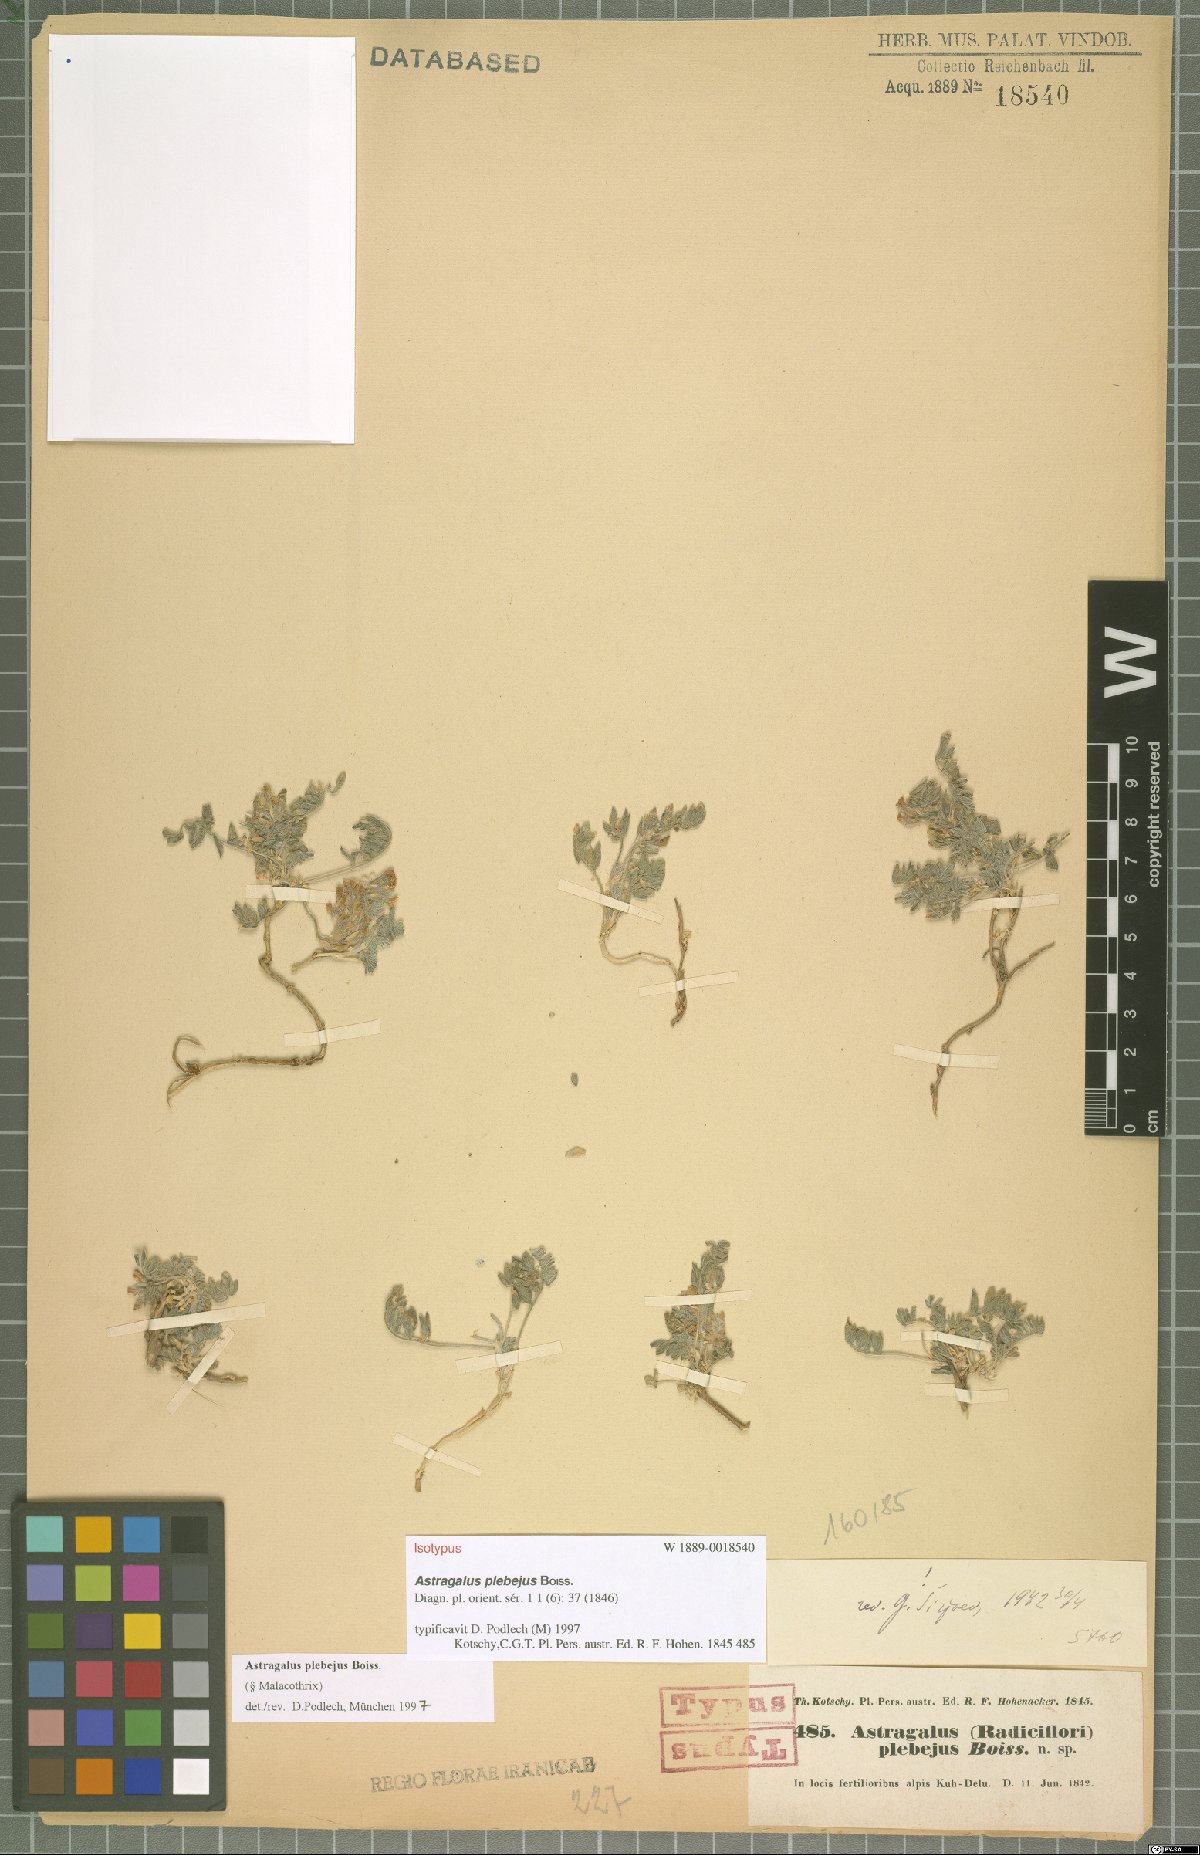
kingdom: Plantae
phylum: Tracheophyta
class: Magnoliopsida
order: Fabales
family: Fabaceae
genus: Astragalus
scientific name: Astragalus plebeius
